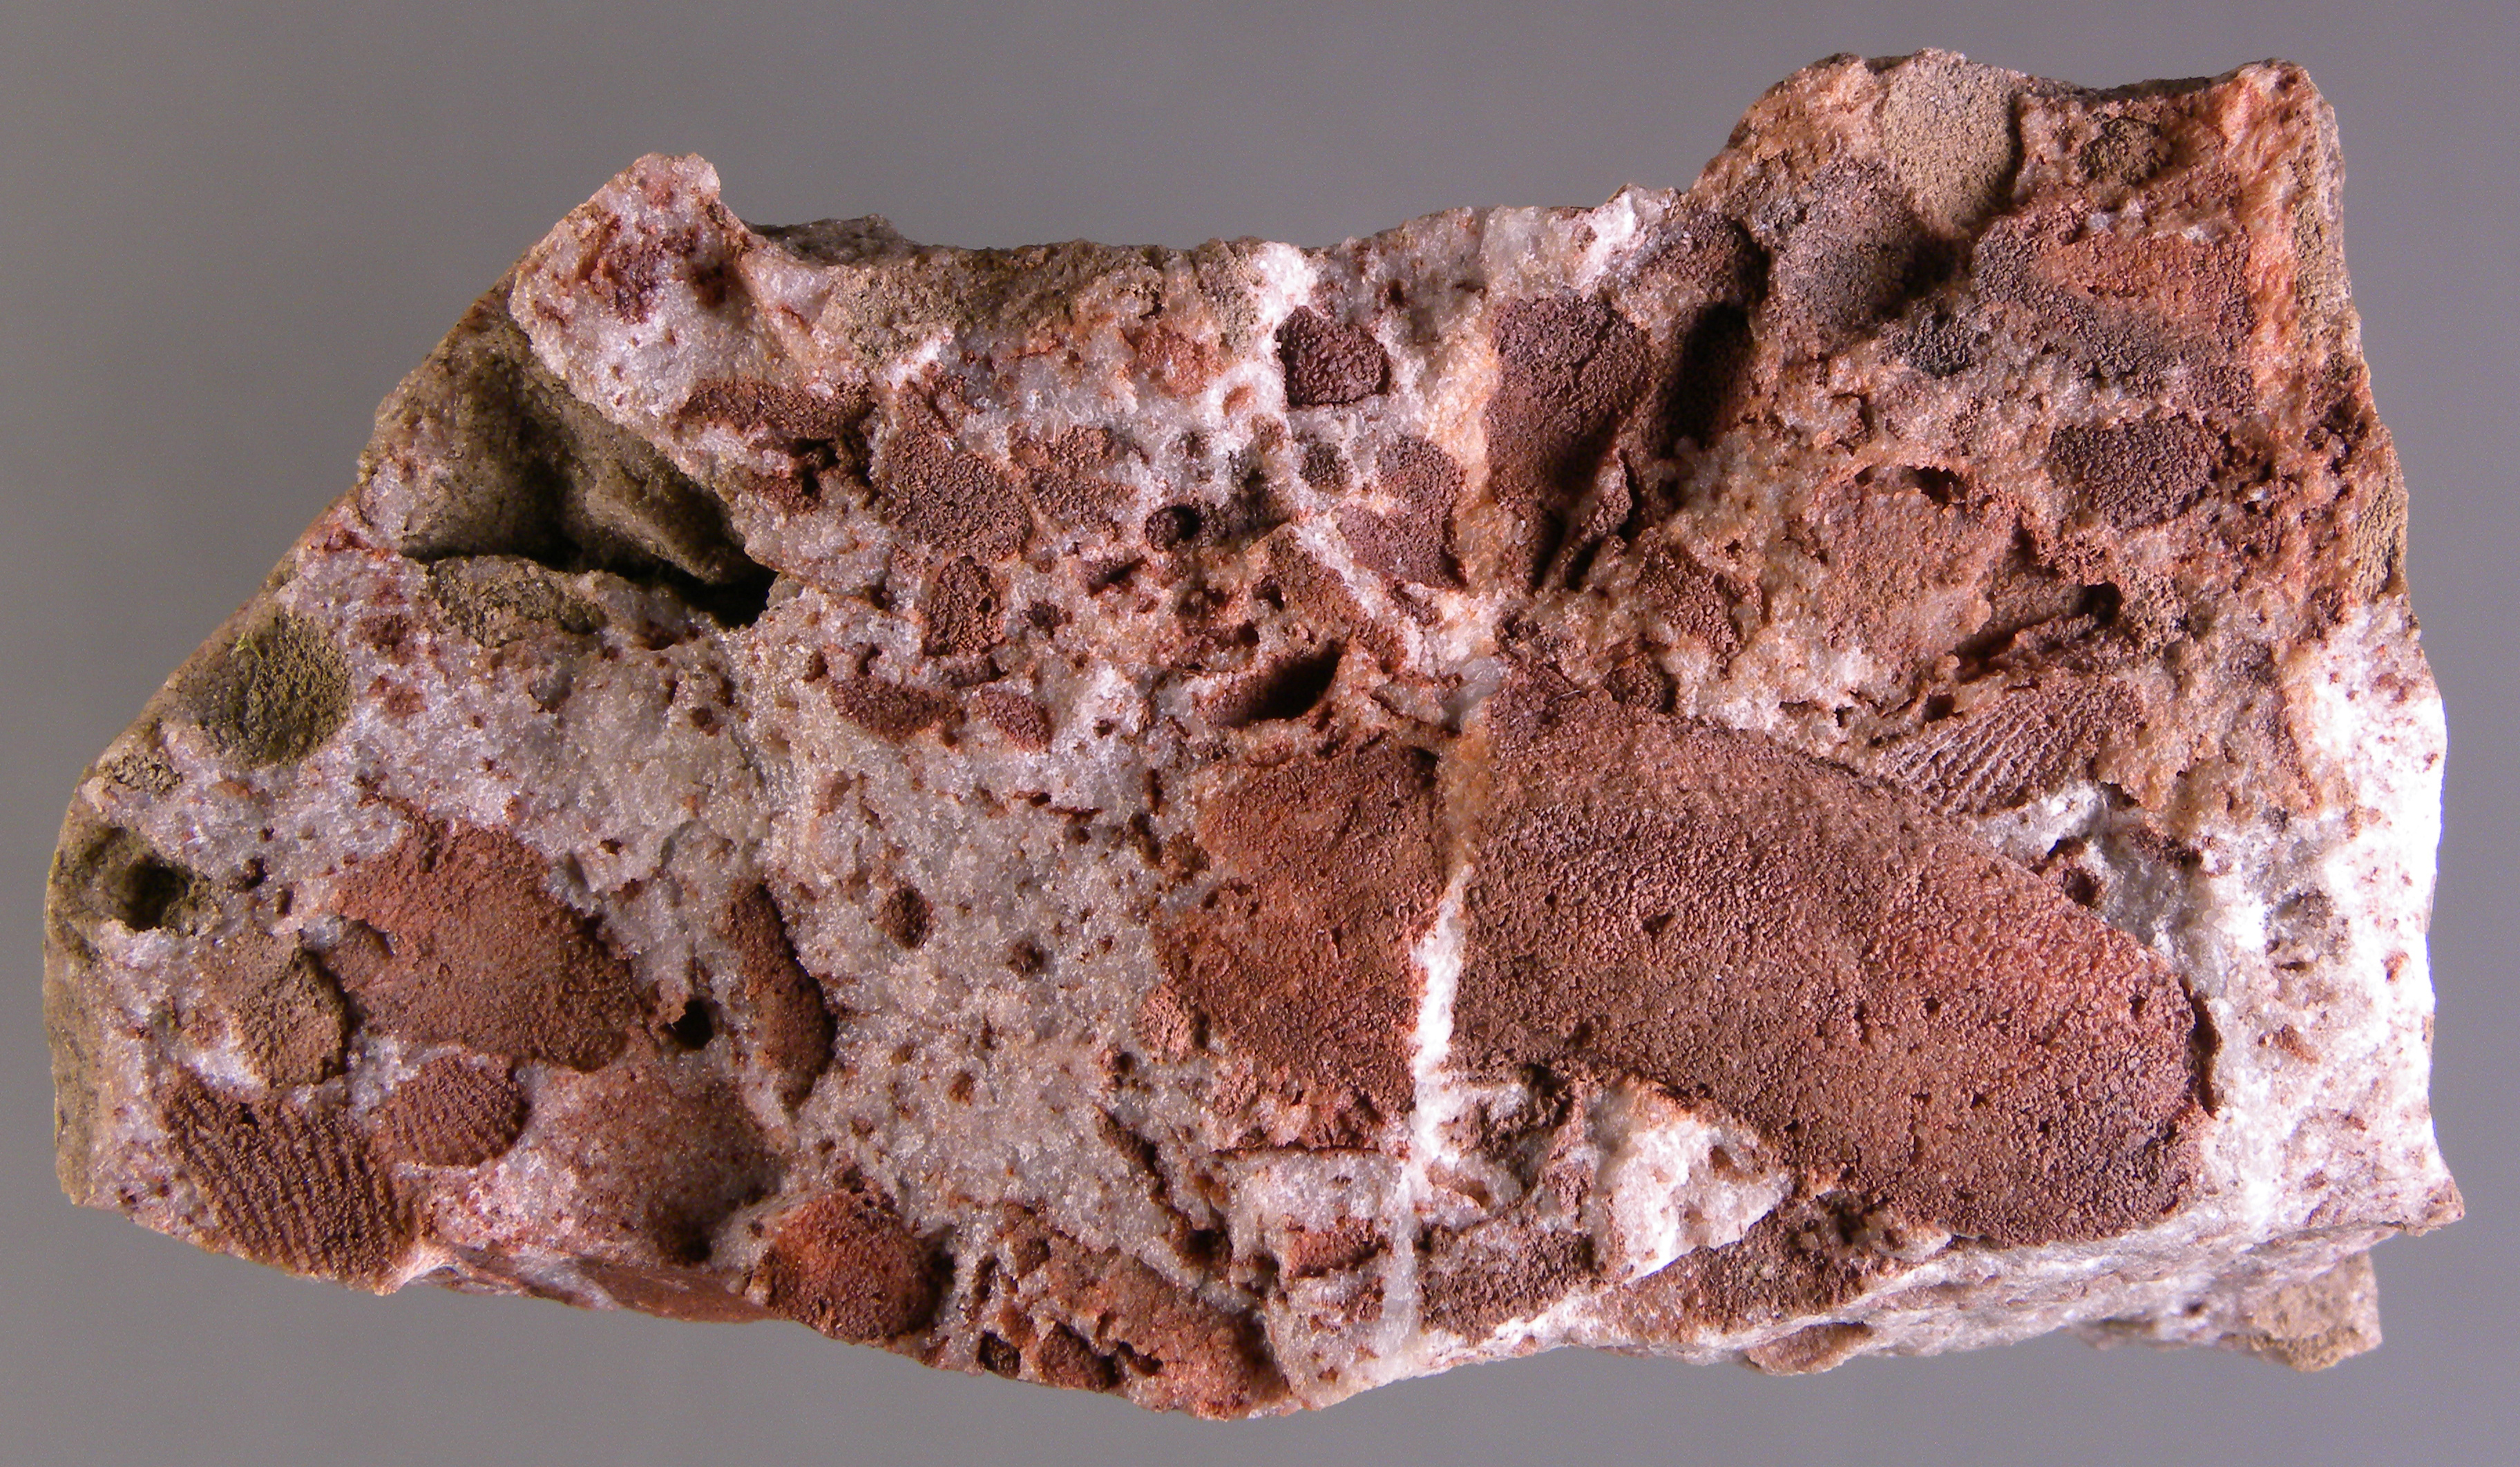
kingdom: Animalia
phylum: Mollusca
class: Bivalvia
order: Modiomorphida
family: Modiomorphidae
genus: Modiomorpha
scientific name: Modiomorpha
